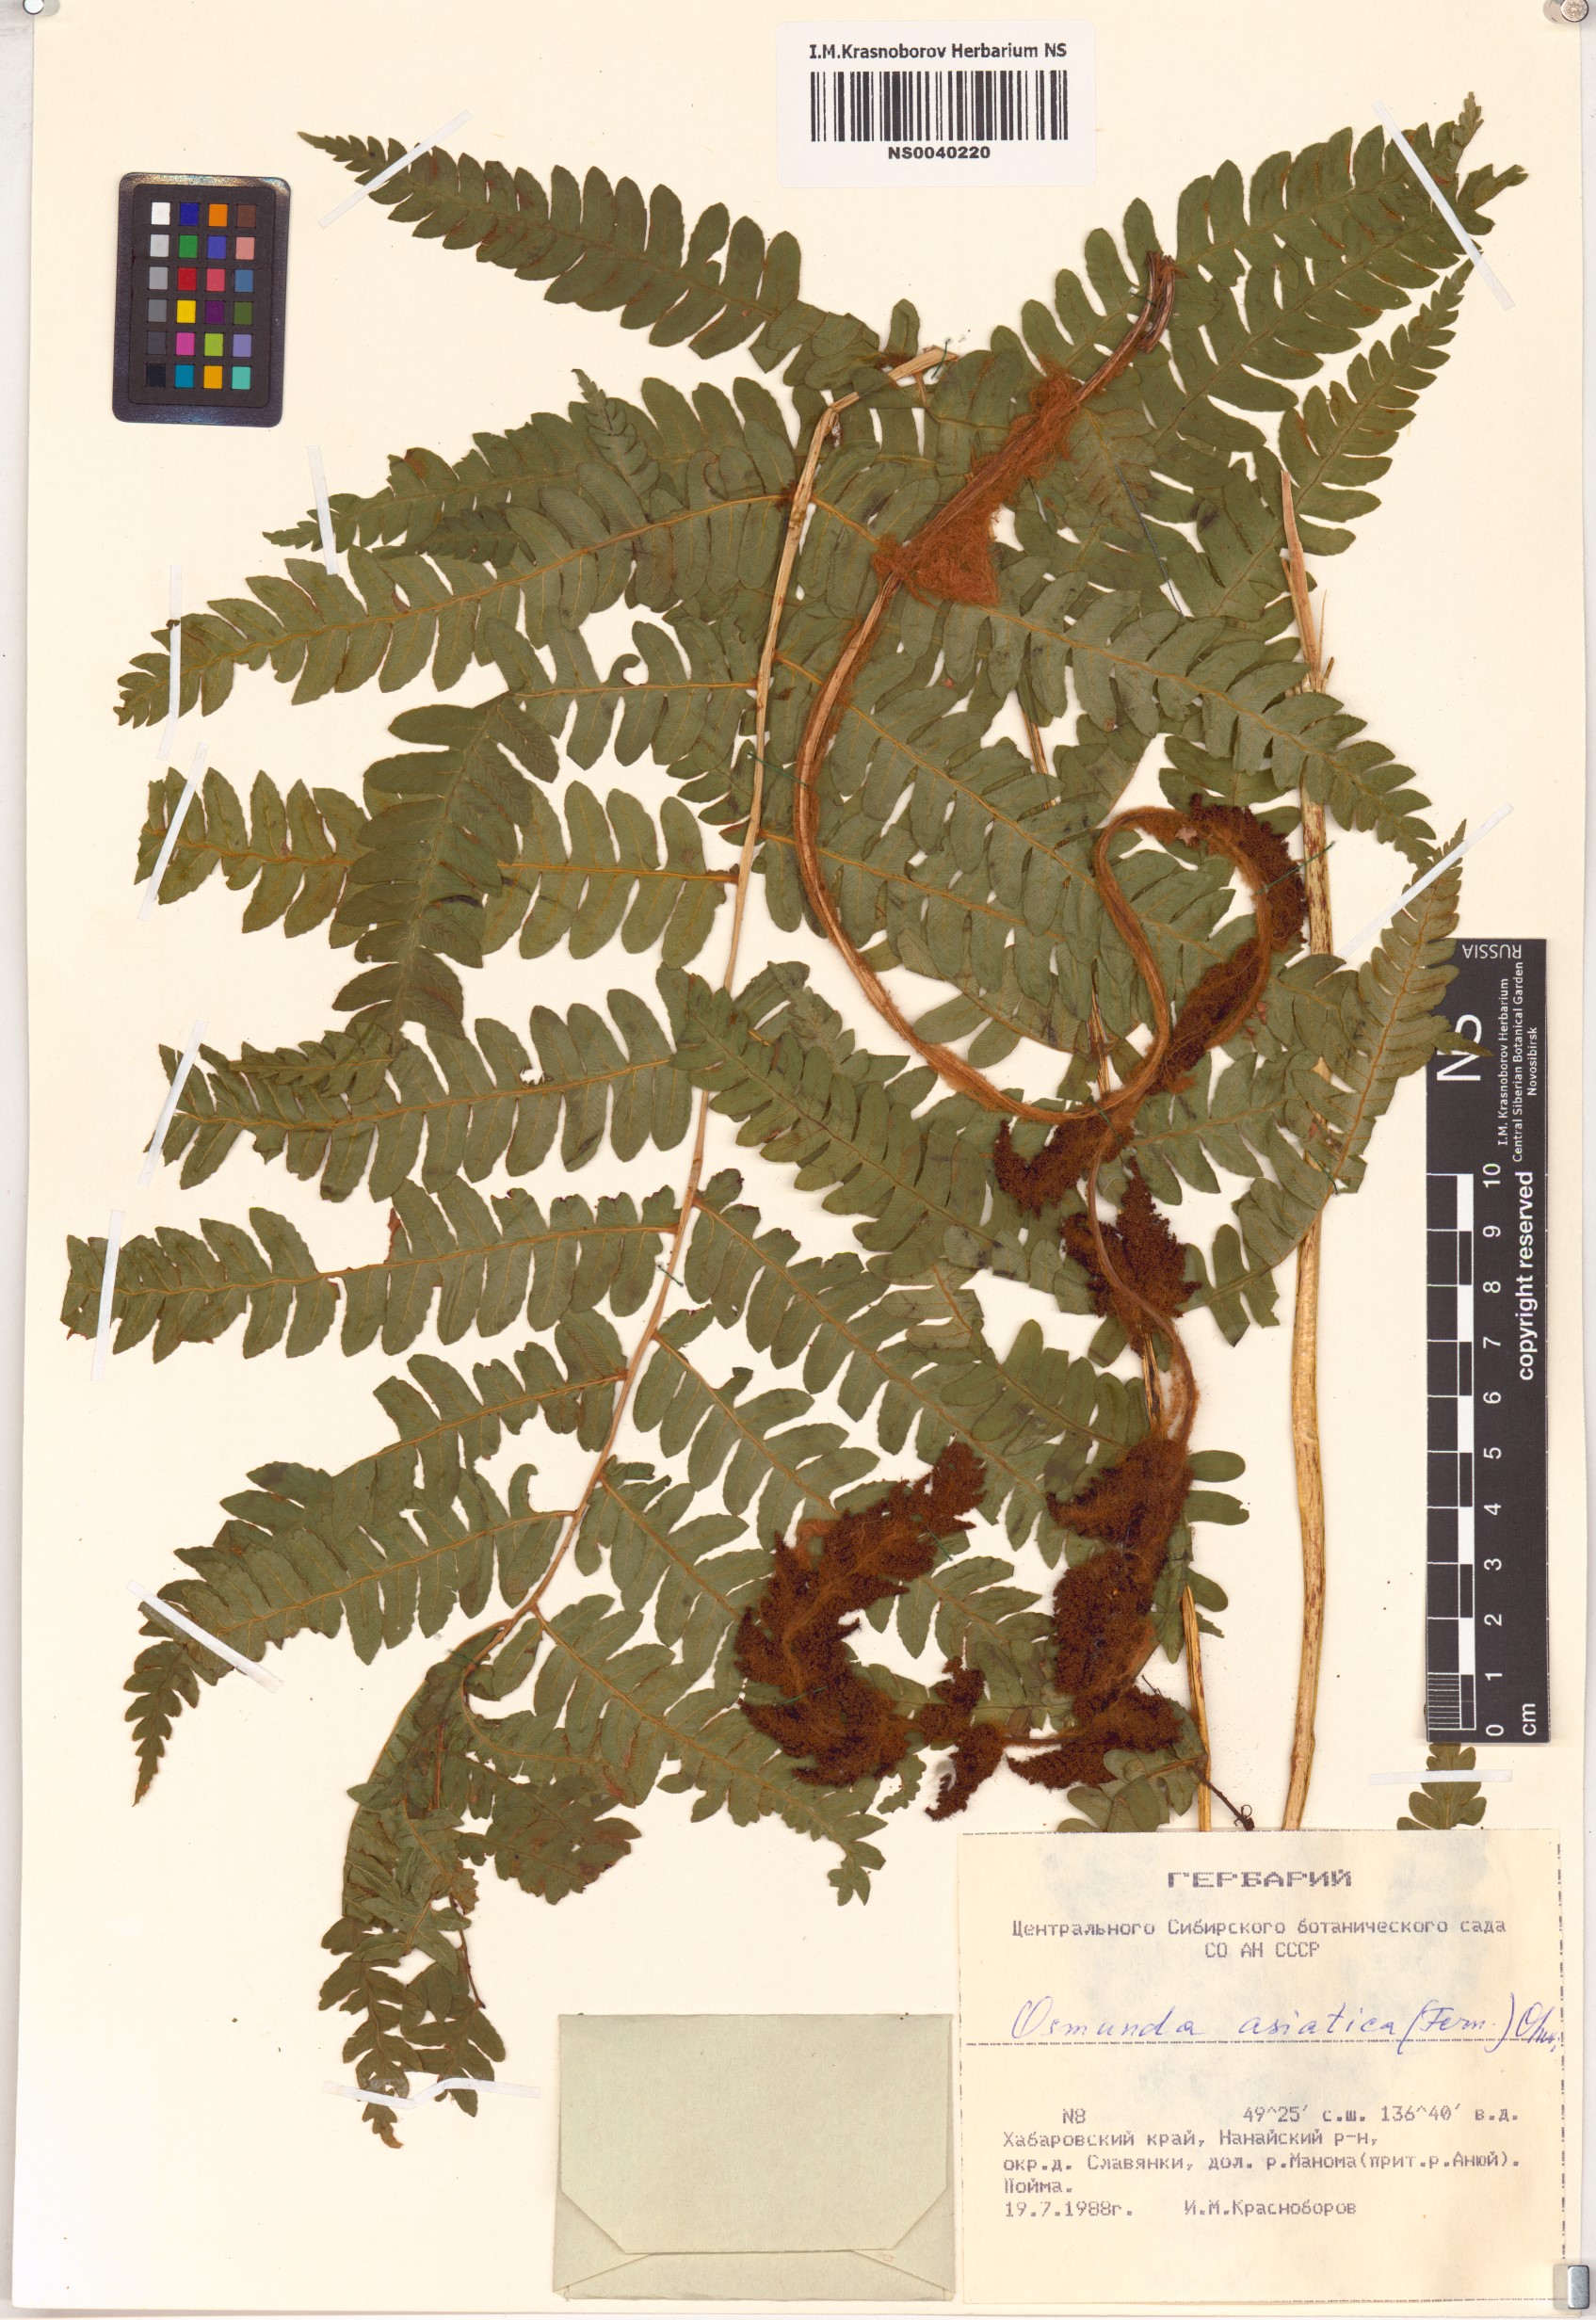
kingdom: Plantae
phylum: Tracheophyta
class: Polypodiopsida
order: Osmundales
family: Osmundaceae
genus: Osmundastrum
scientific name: Osmundastrum cinnamomeum
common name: Cinnamon fern
